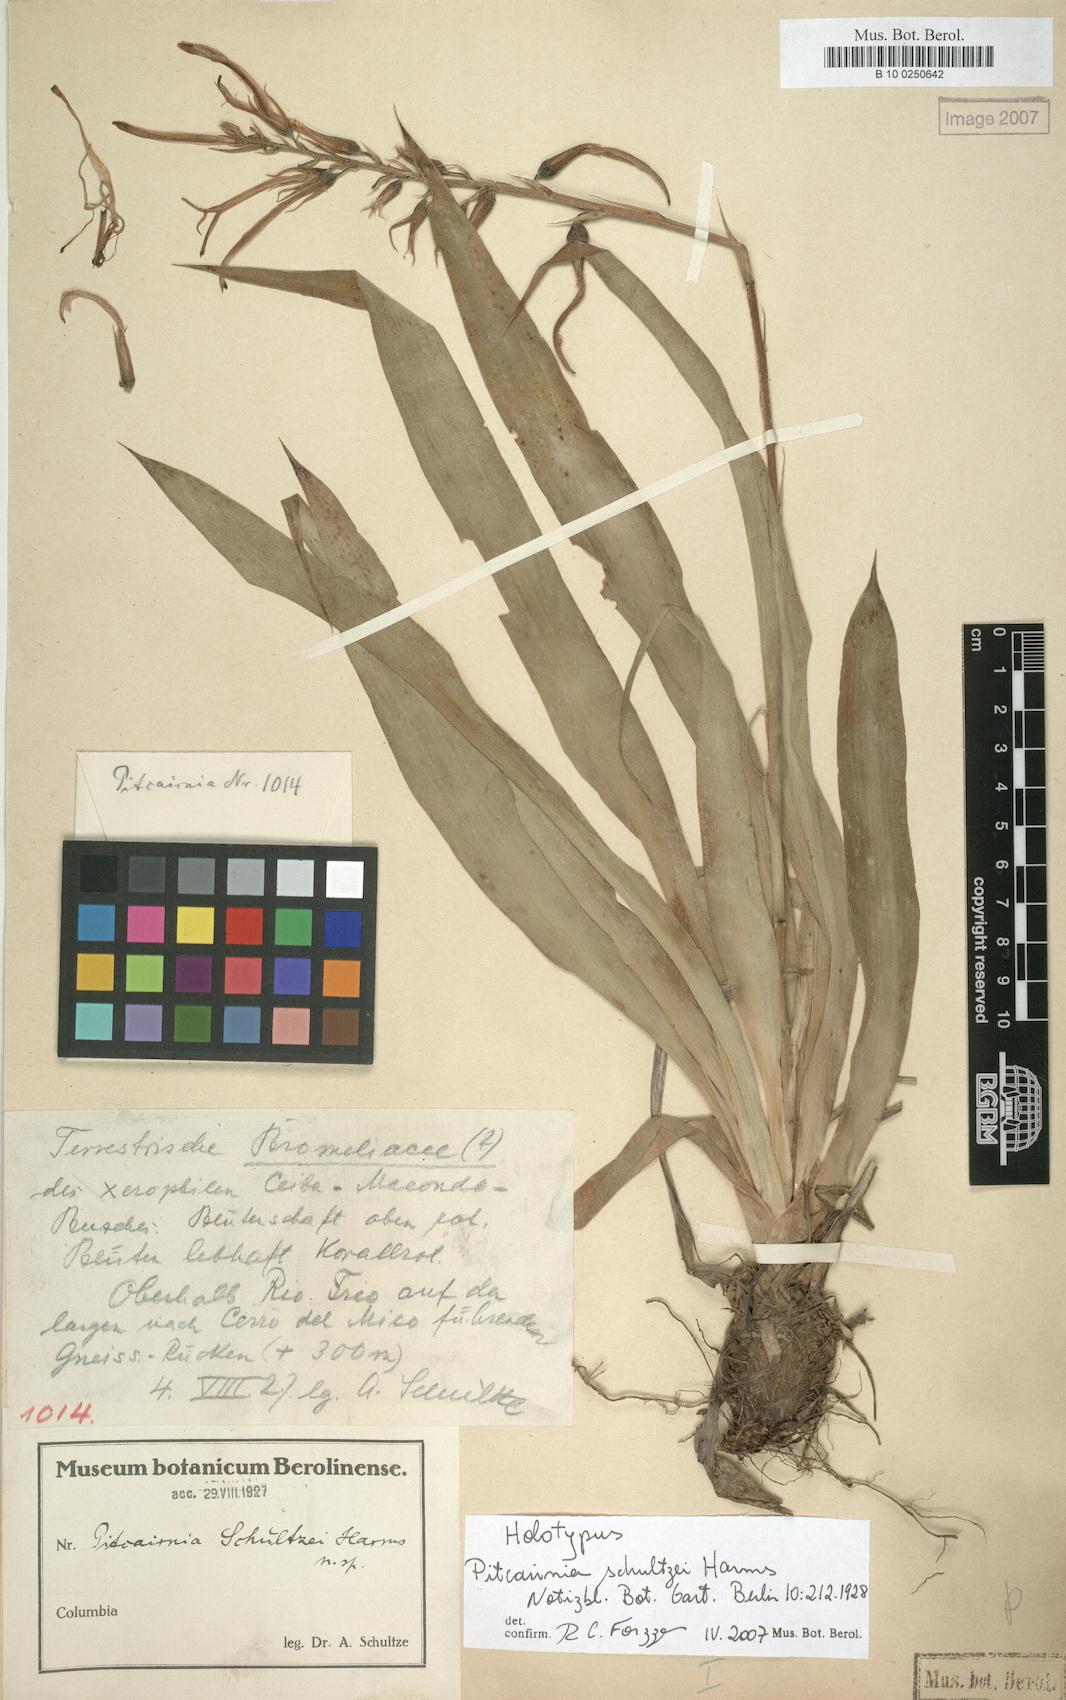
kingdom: Plantae
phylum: Tracheophyta
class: Liliopsida
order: Poales
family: Bromeliaceae
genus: Pitcairnia
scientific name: Pitcairnia schultzei
